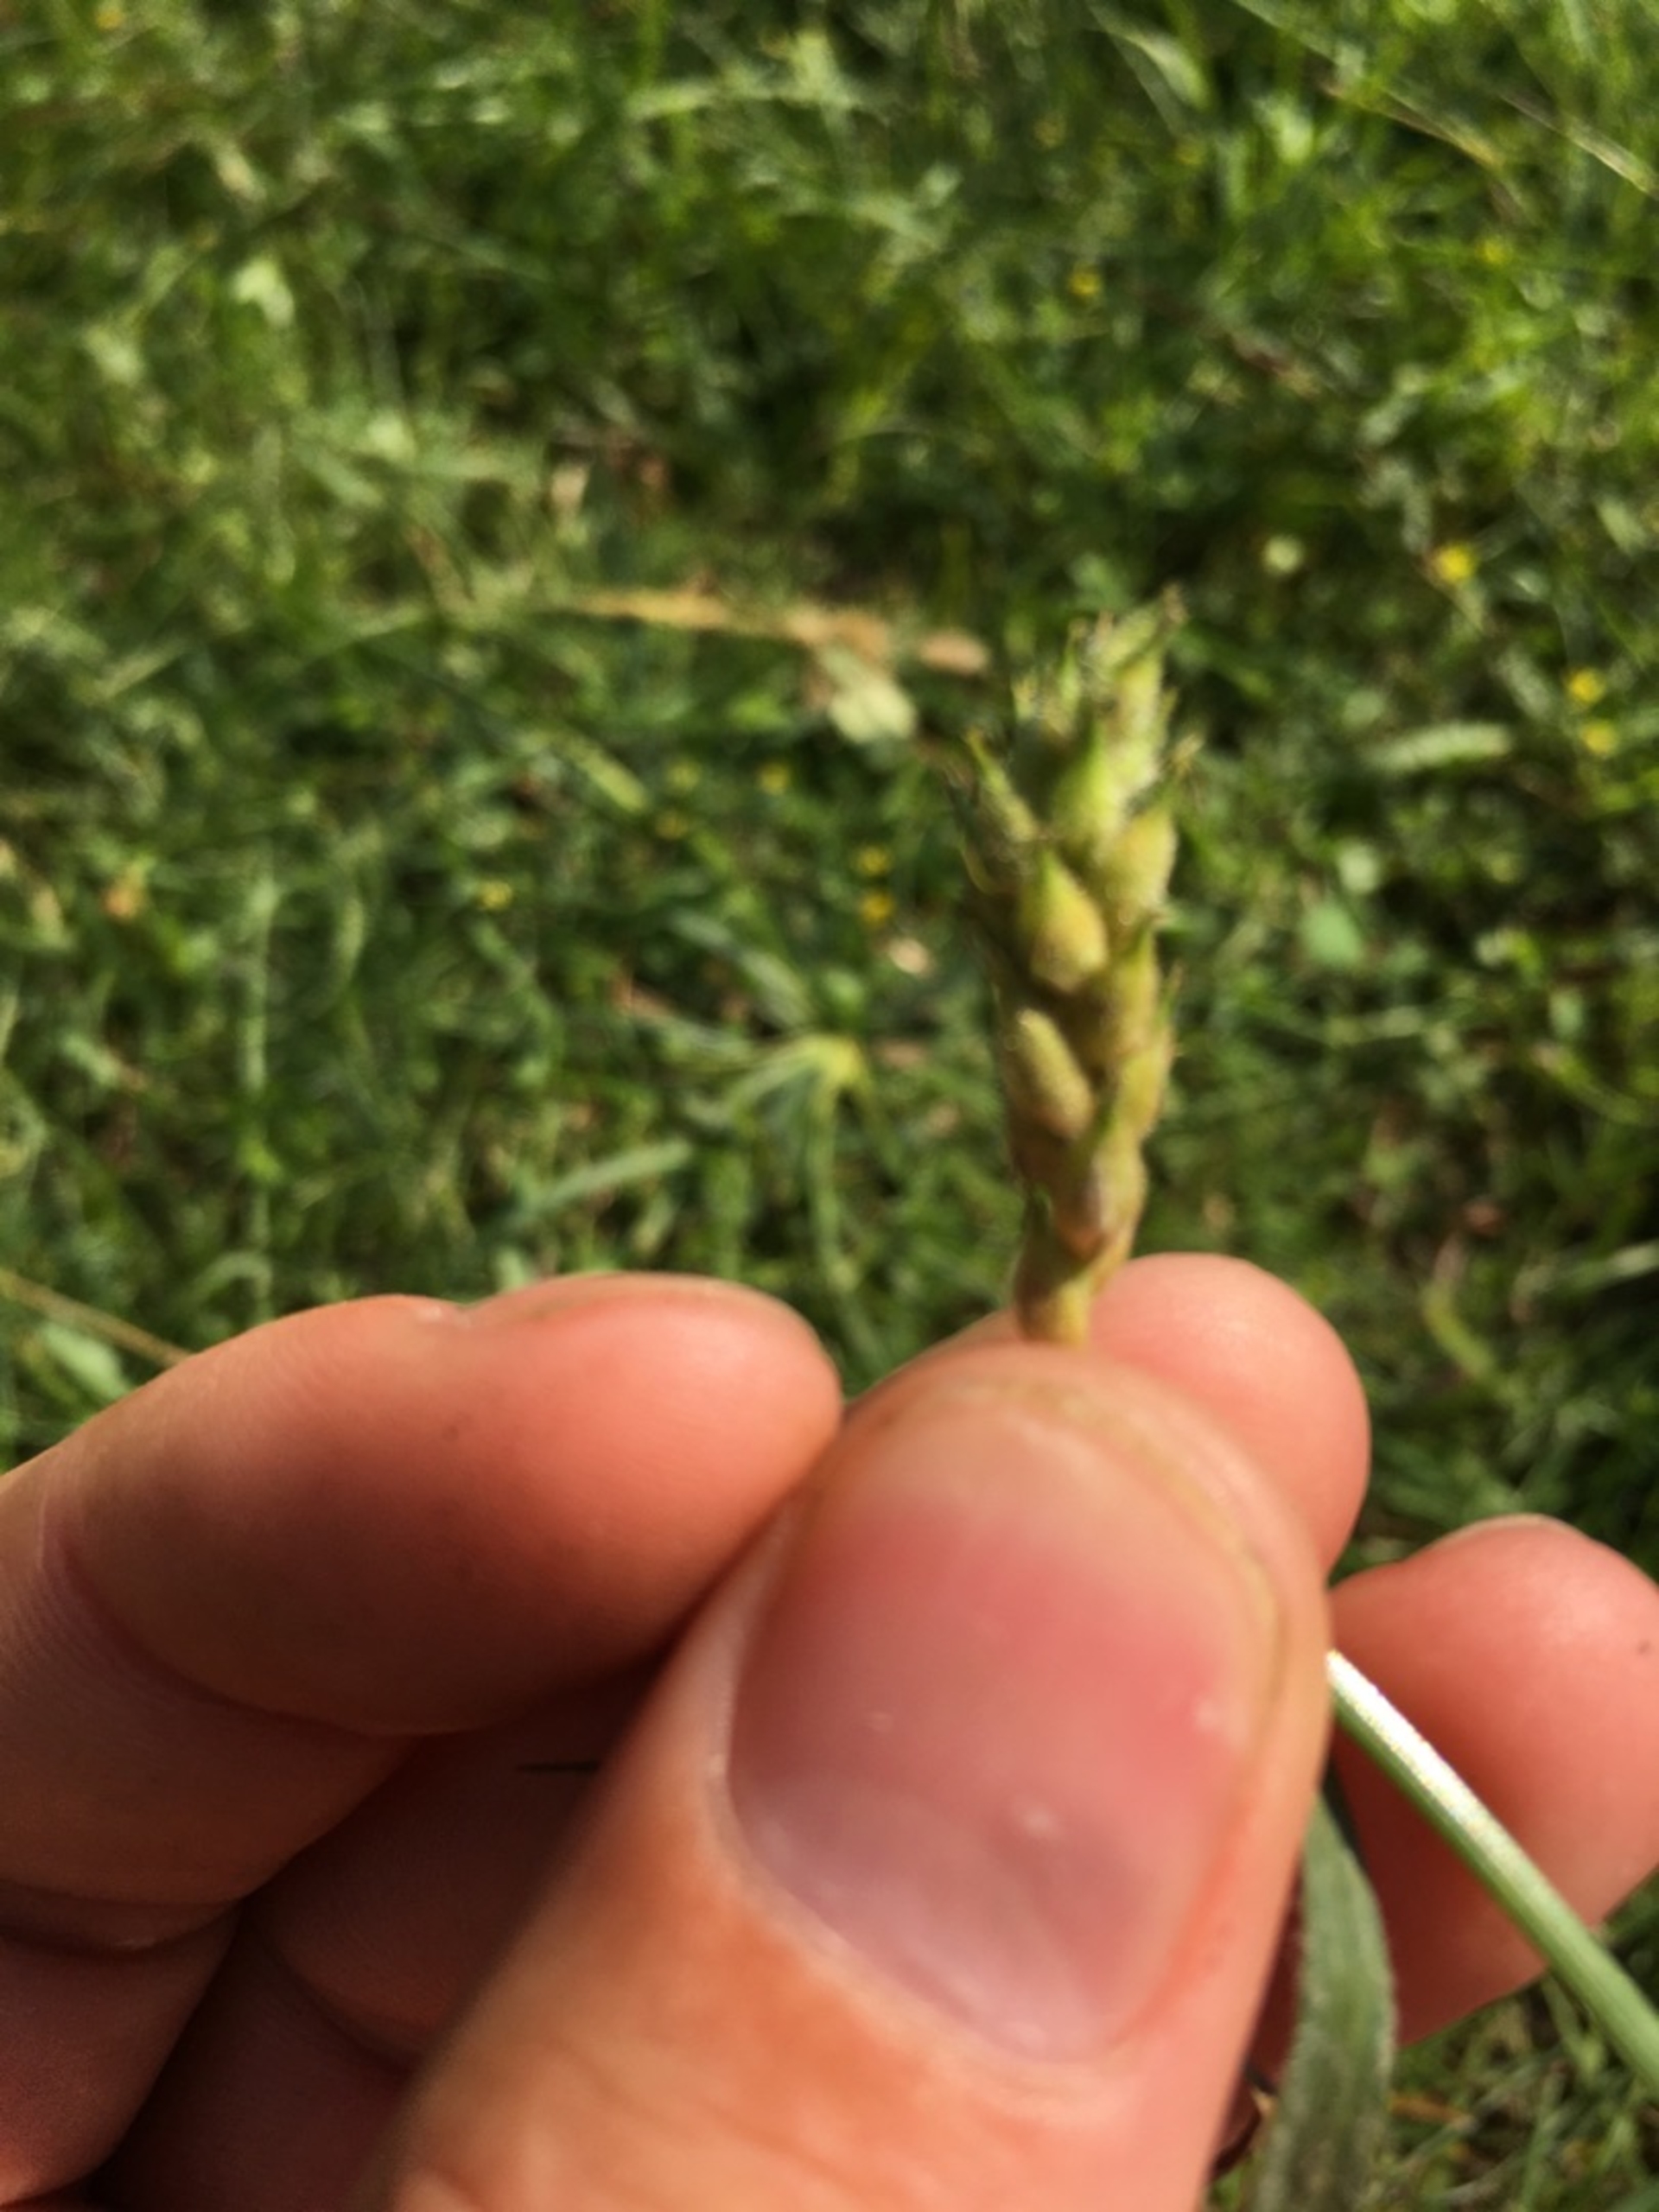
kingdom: Plantae
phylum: Tracheophyta
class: Liliopsida
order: Poales
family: Cyperaceae
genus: Carex
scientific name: Carex hirta
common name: Håret star
